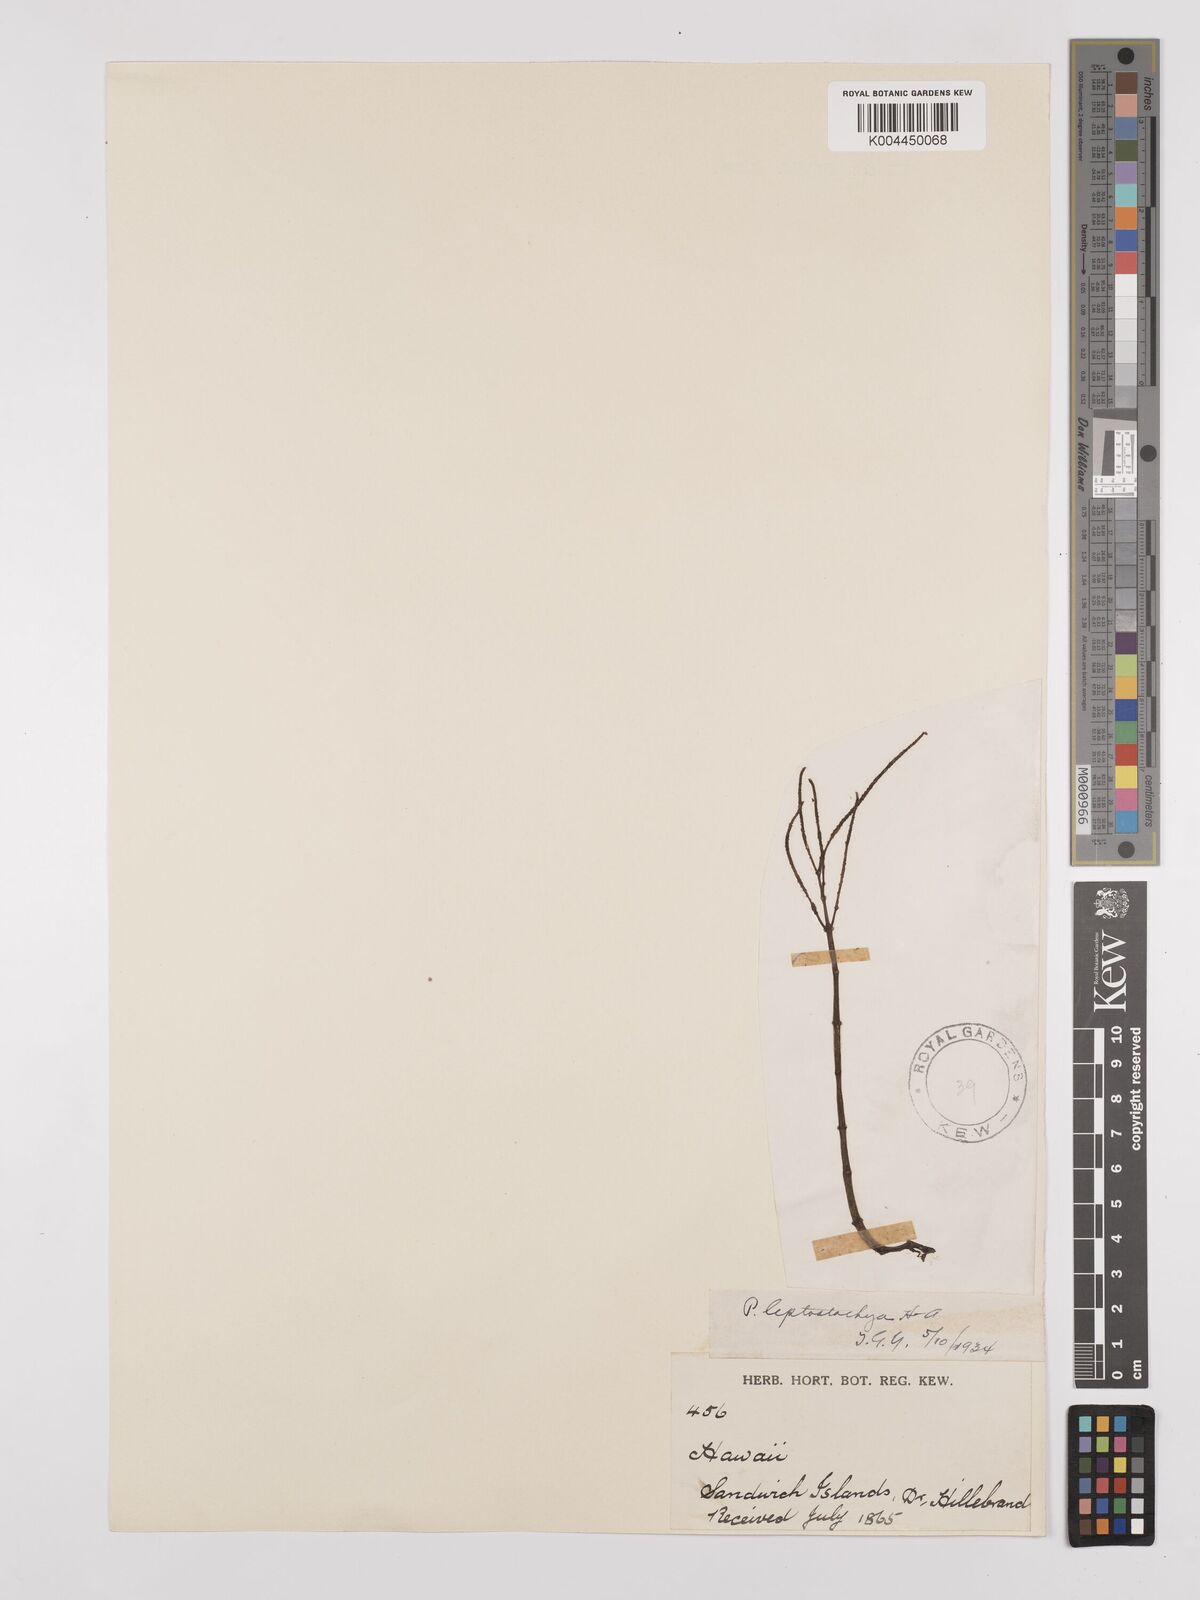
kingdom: Plantae
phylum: Tracheophyta
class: Magnoliopsida
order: Piperales
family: Piperaceae
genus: Peperomia
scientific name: Peperomia leptostachya
